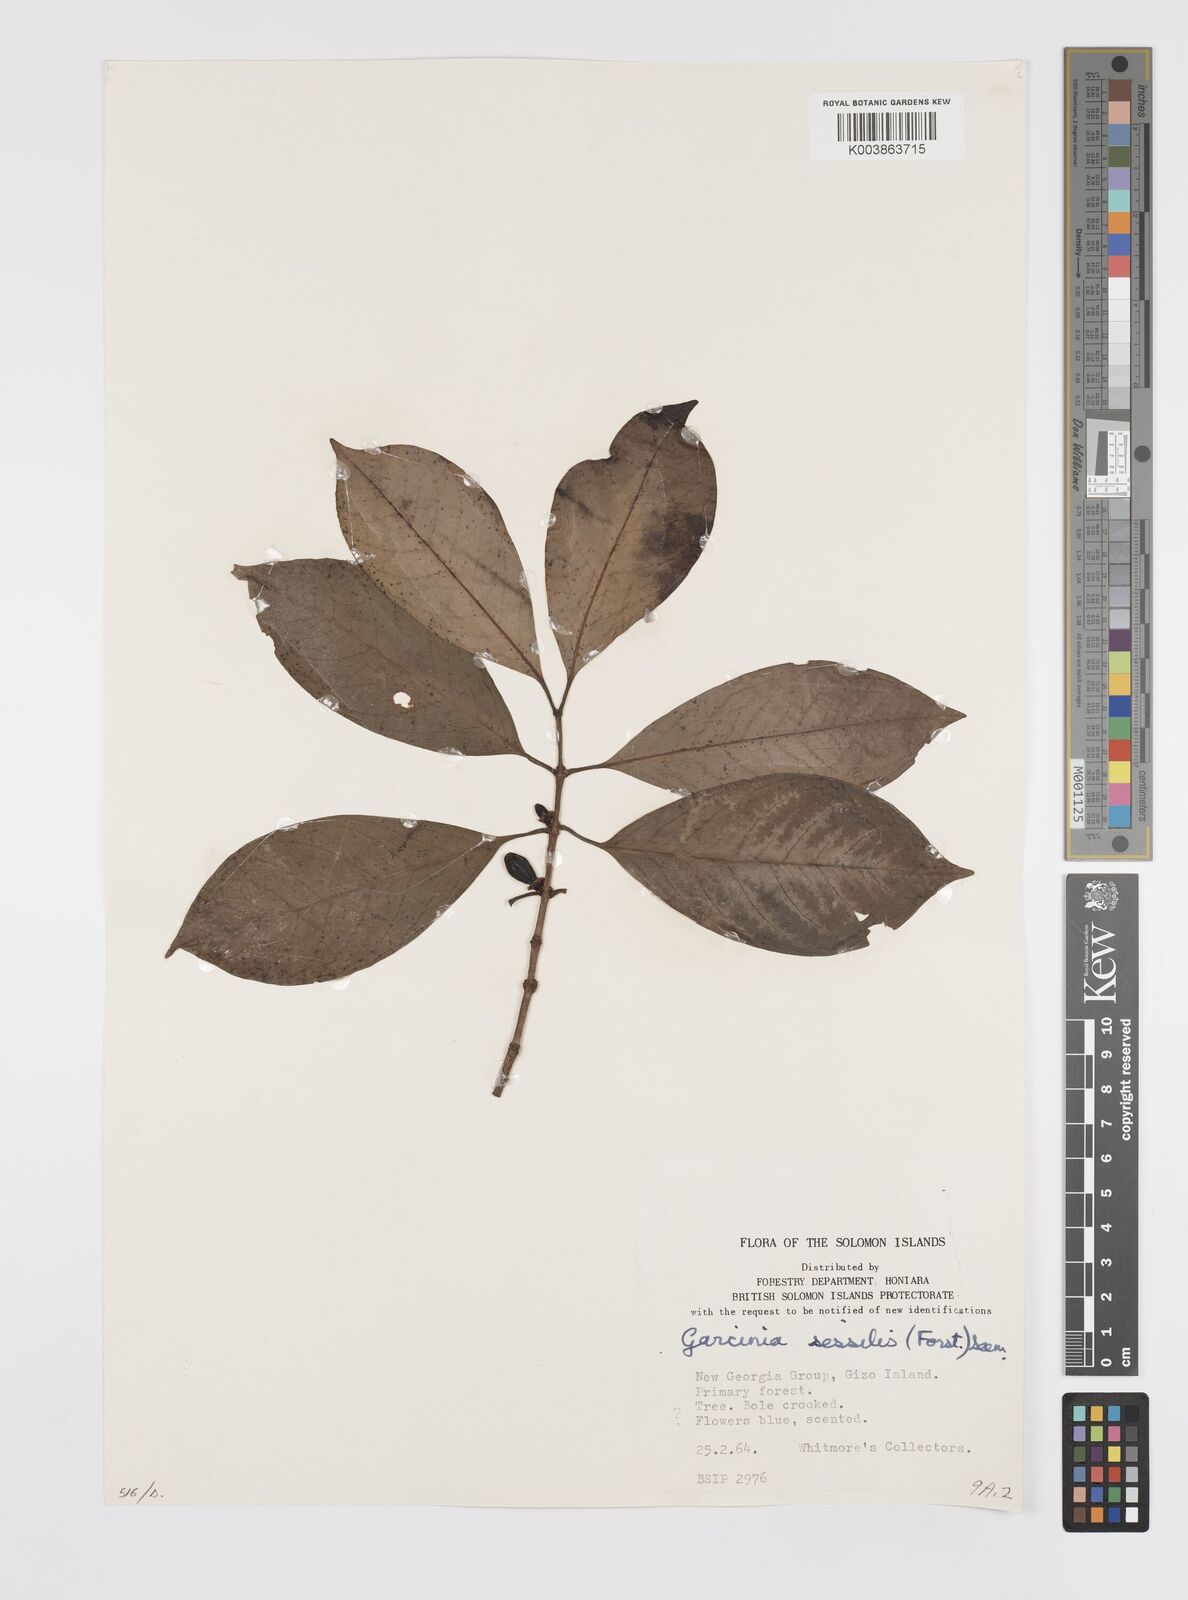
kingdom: Plantae
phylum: Tracheophyta
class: Magnoliopsida
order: Malpighiales
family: Clusiaceae
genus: Garcinia
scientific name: Garcinia sessilis
